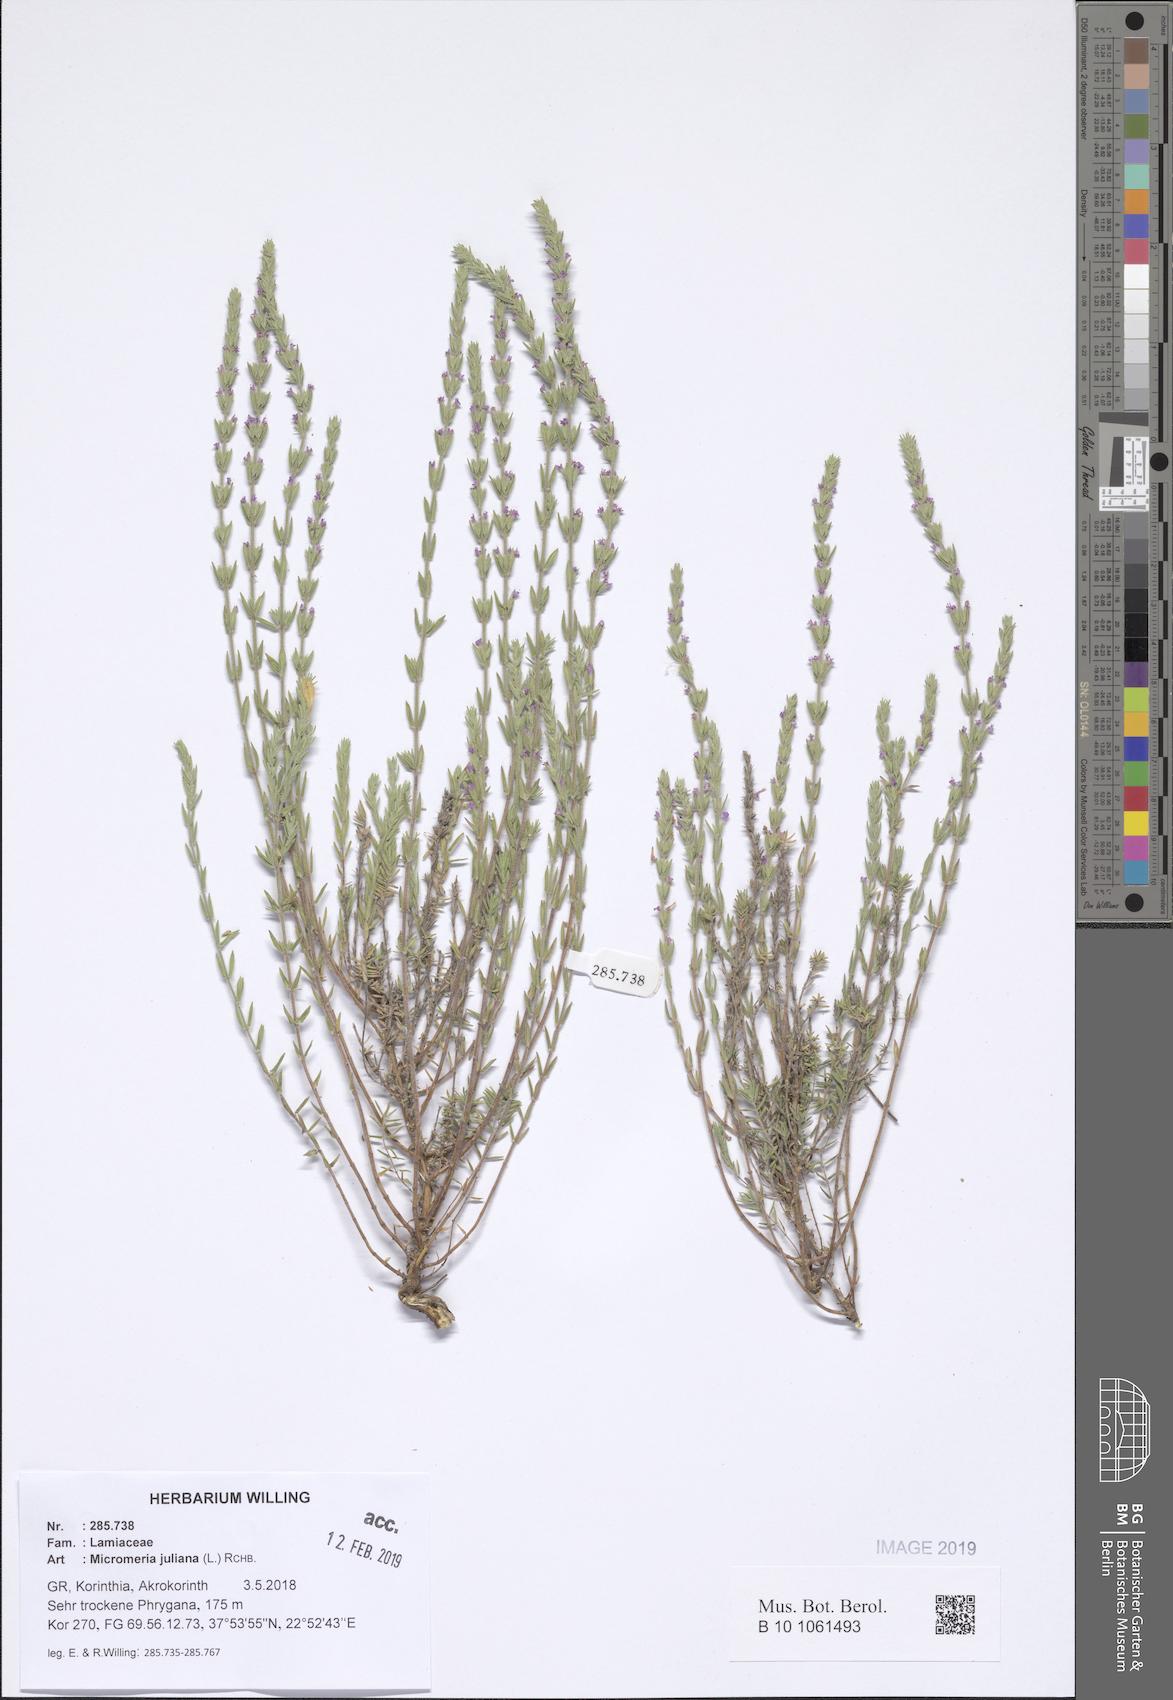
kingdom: Plantae
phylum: Tracheophyta
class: Magnoliopsida
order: Lamiales
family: Lamiaceae
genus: Micromeria
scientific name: Micromeria juliana
